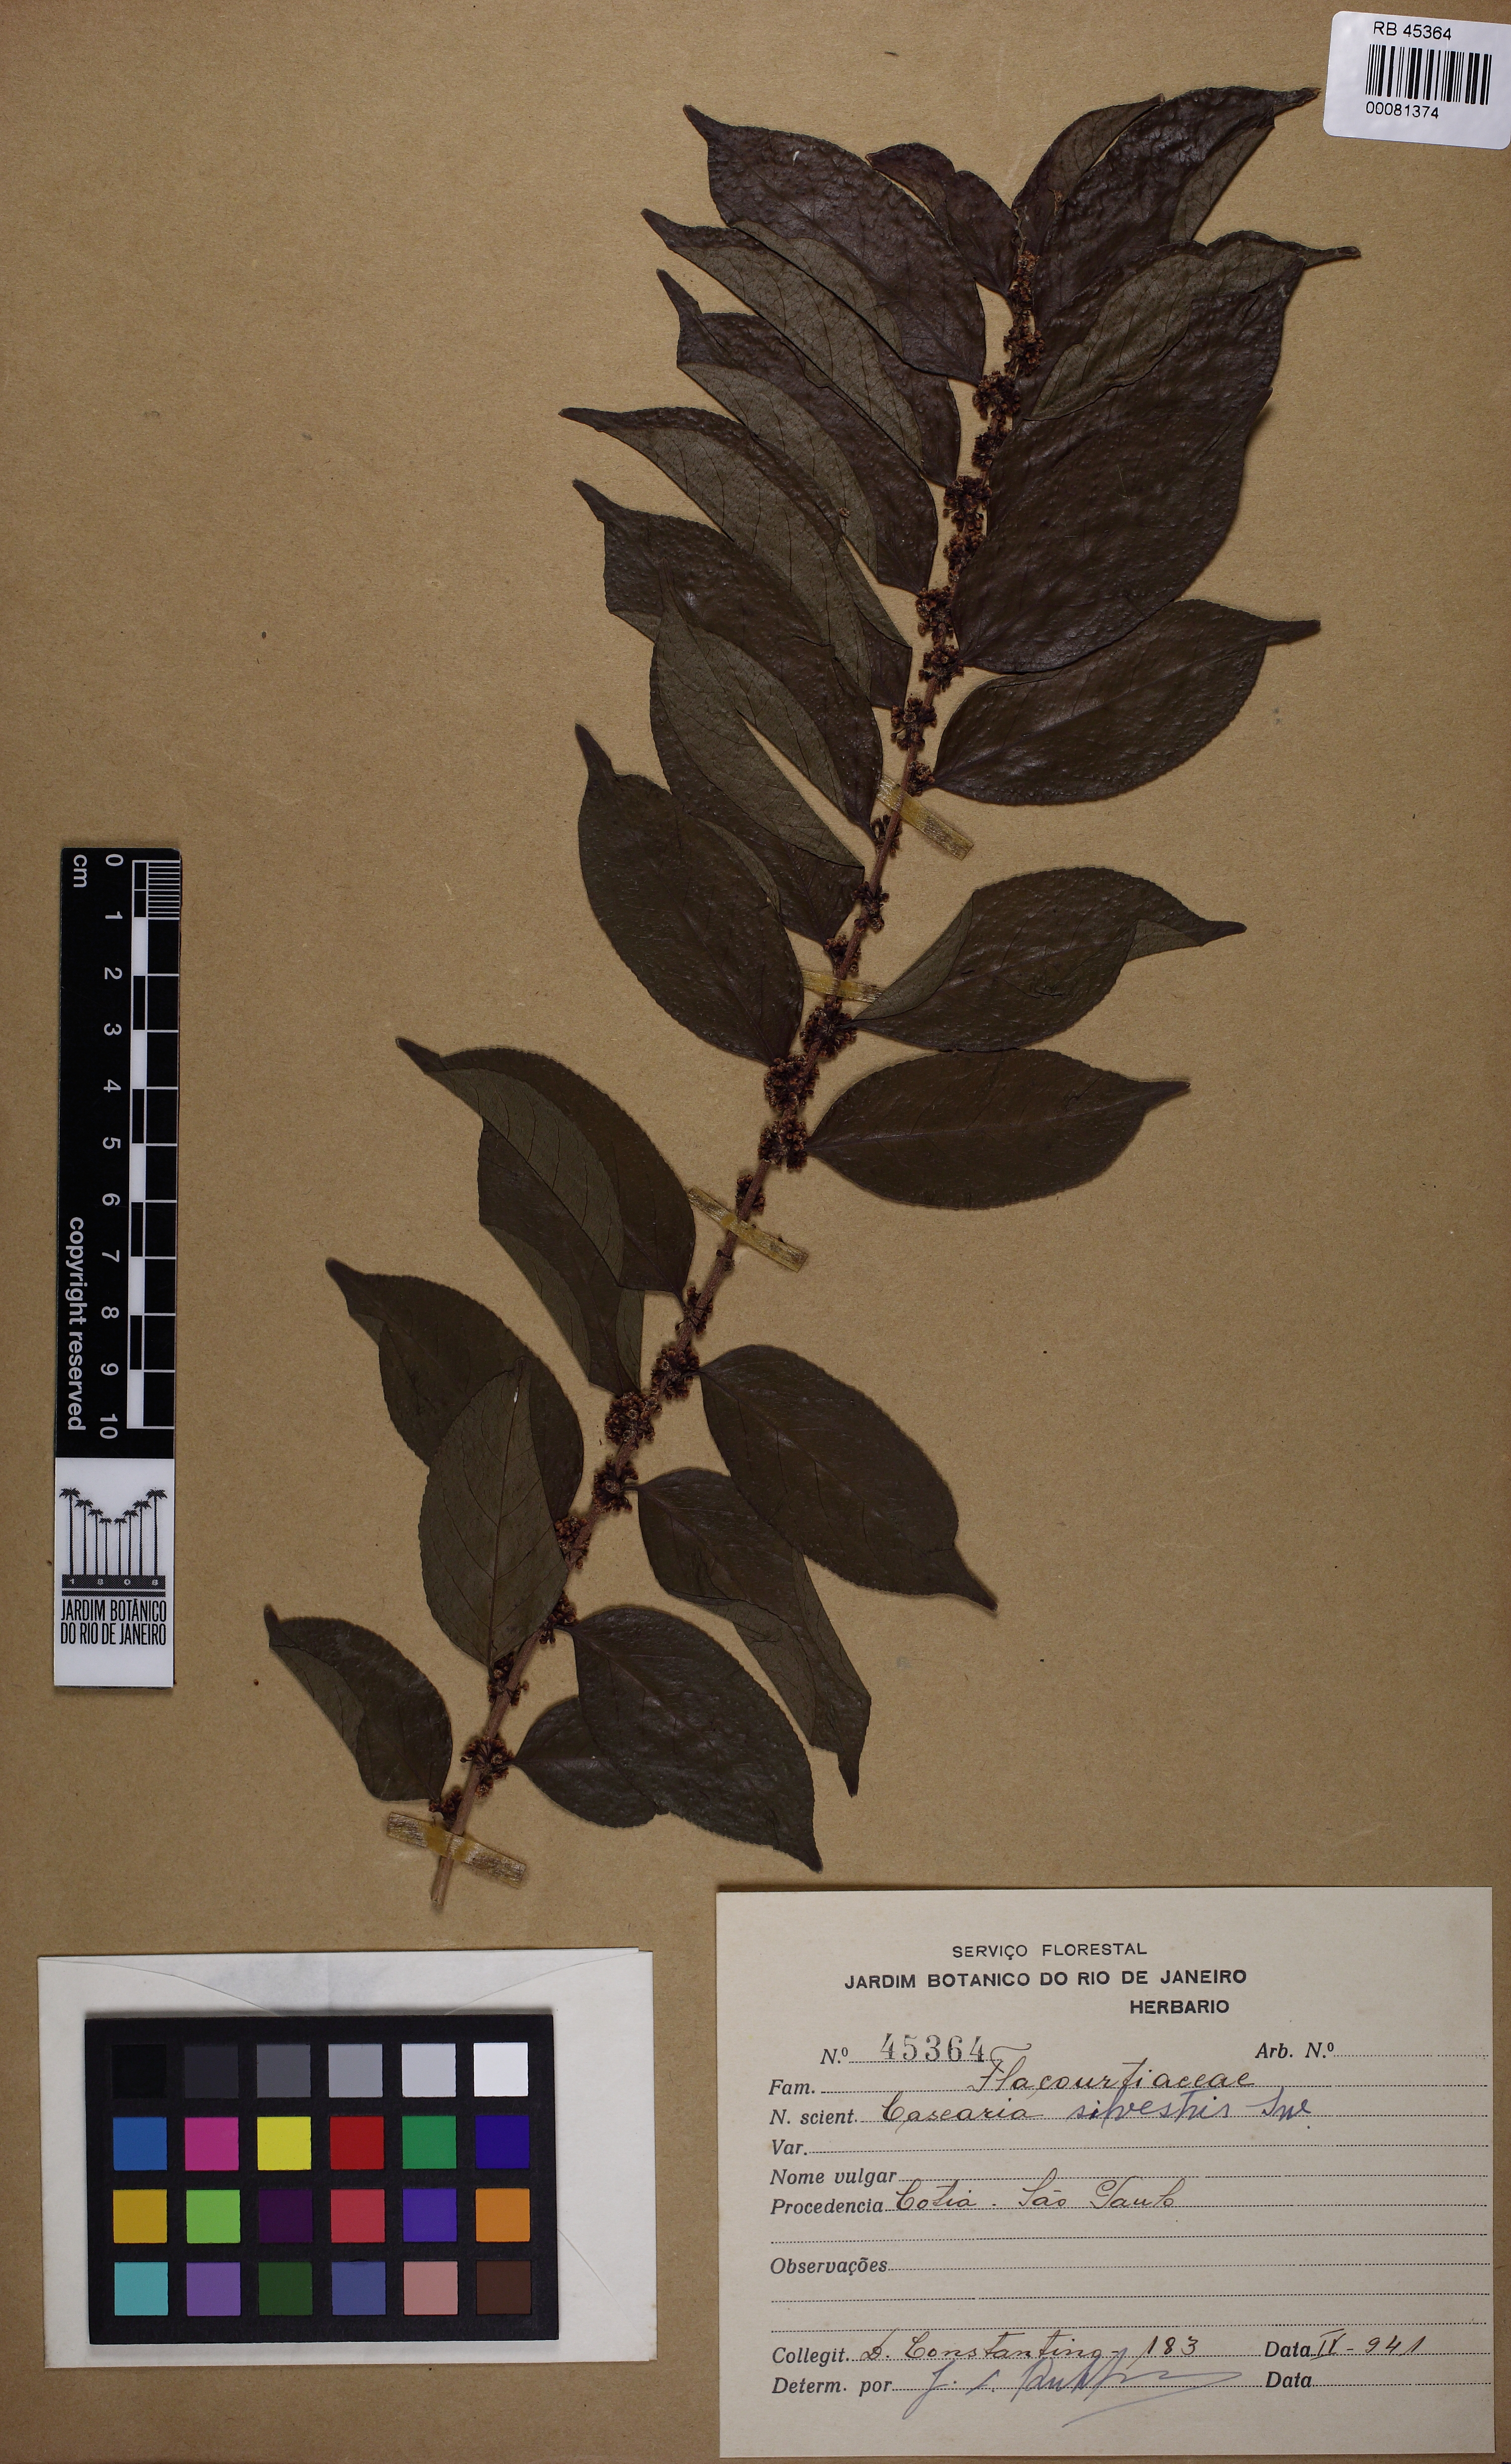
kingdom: Plantae
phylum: Tracheophyta
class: Magnoliopsida
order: Malpighiales
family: Salicaceae
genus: Casearia
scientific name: Casearia sylvestris
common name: Wild sage
